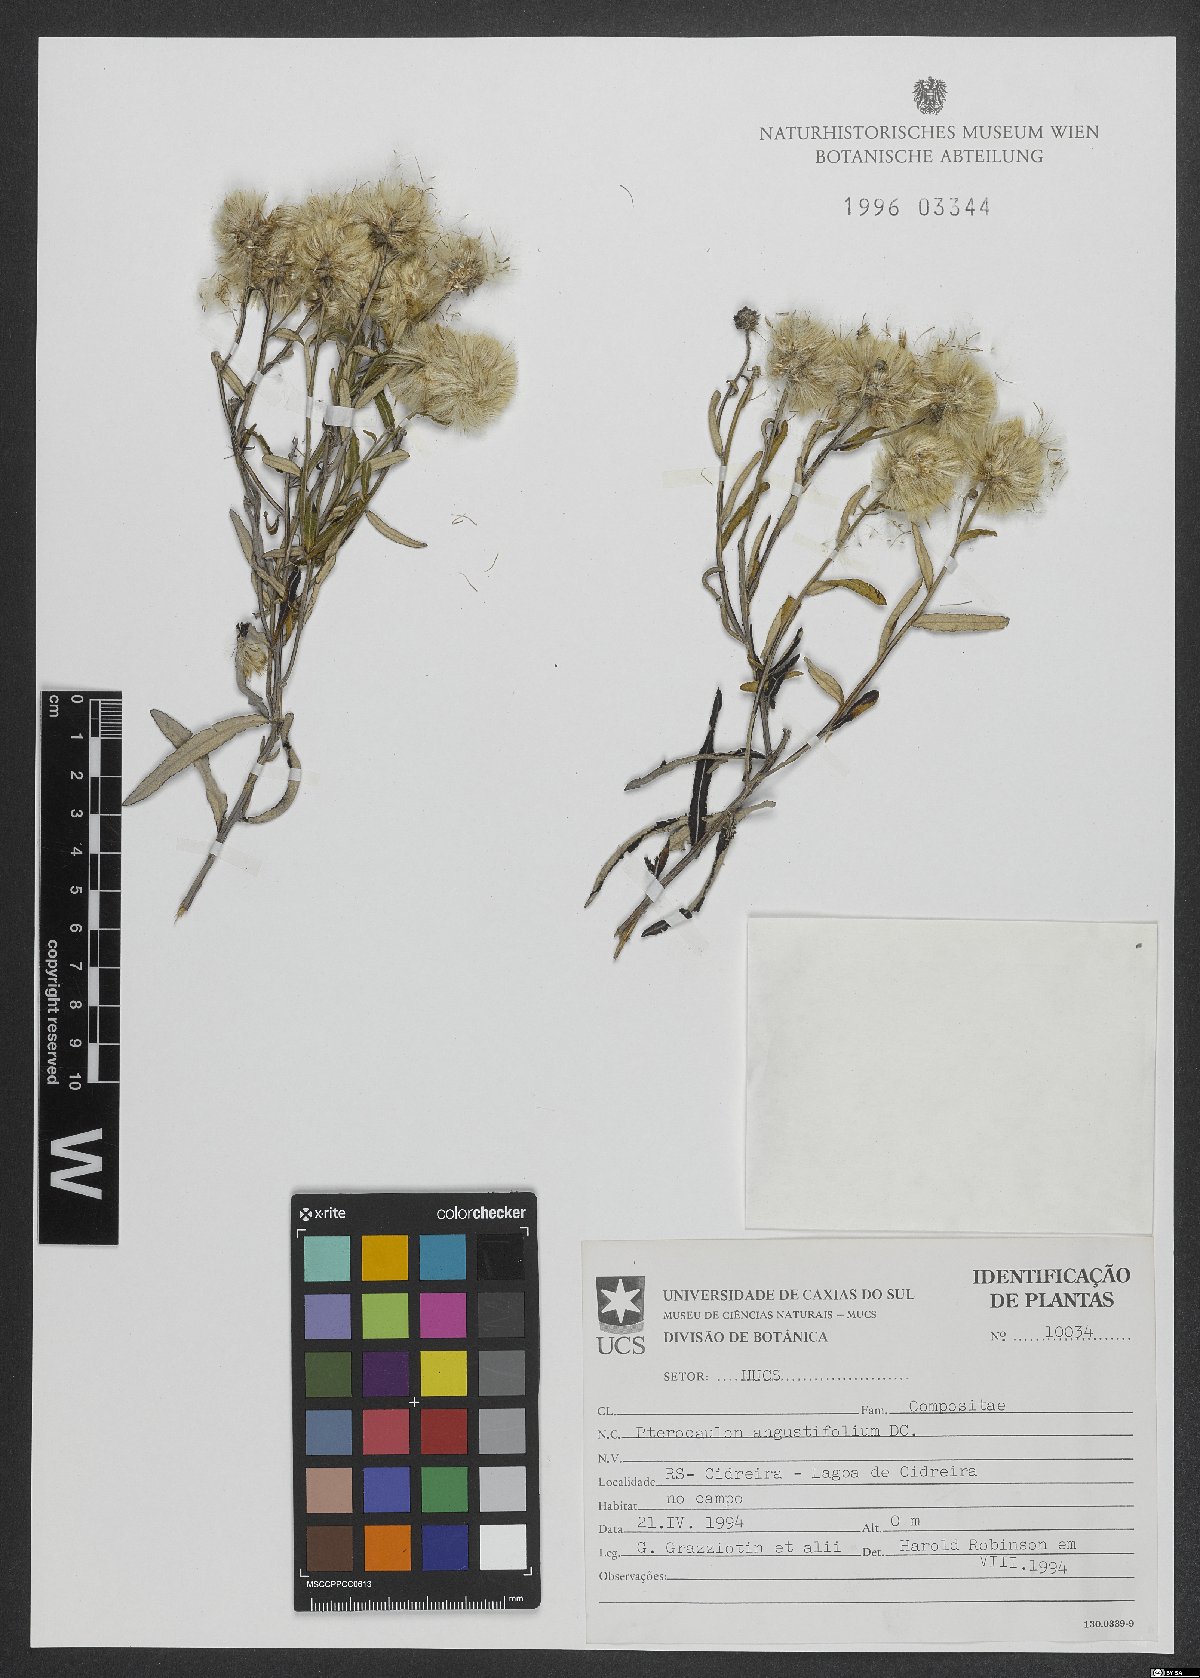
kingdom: Plantae
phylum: Tracheophyta
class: Magnoliopsida
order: Asterales
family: Asteraceae
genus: Pterocaulon
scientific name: Pterocaulon angustifolium
